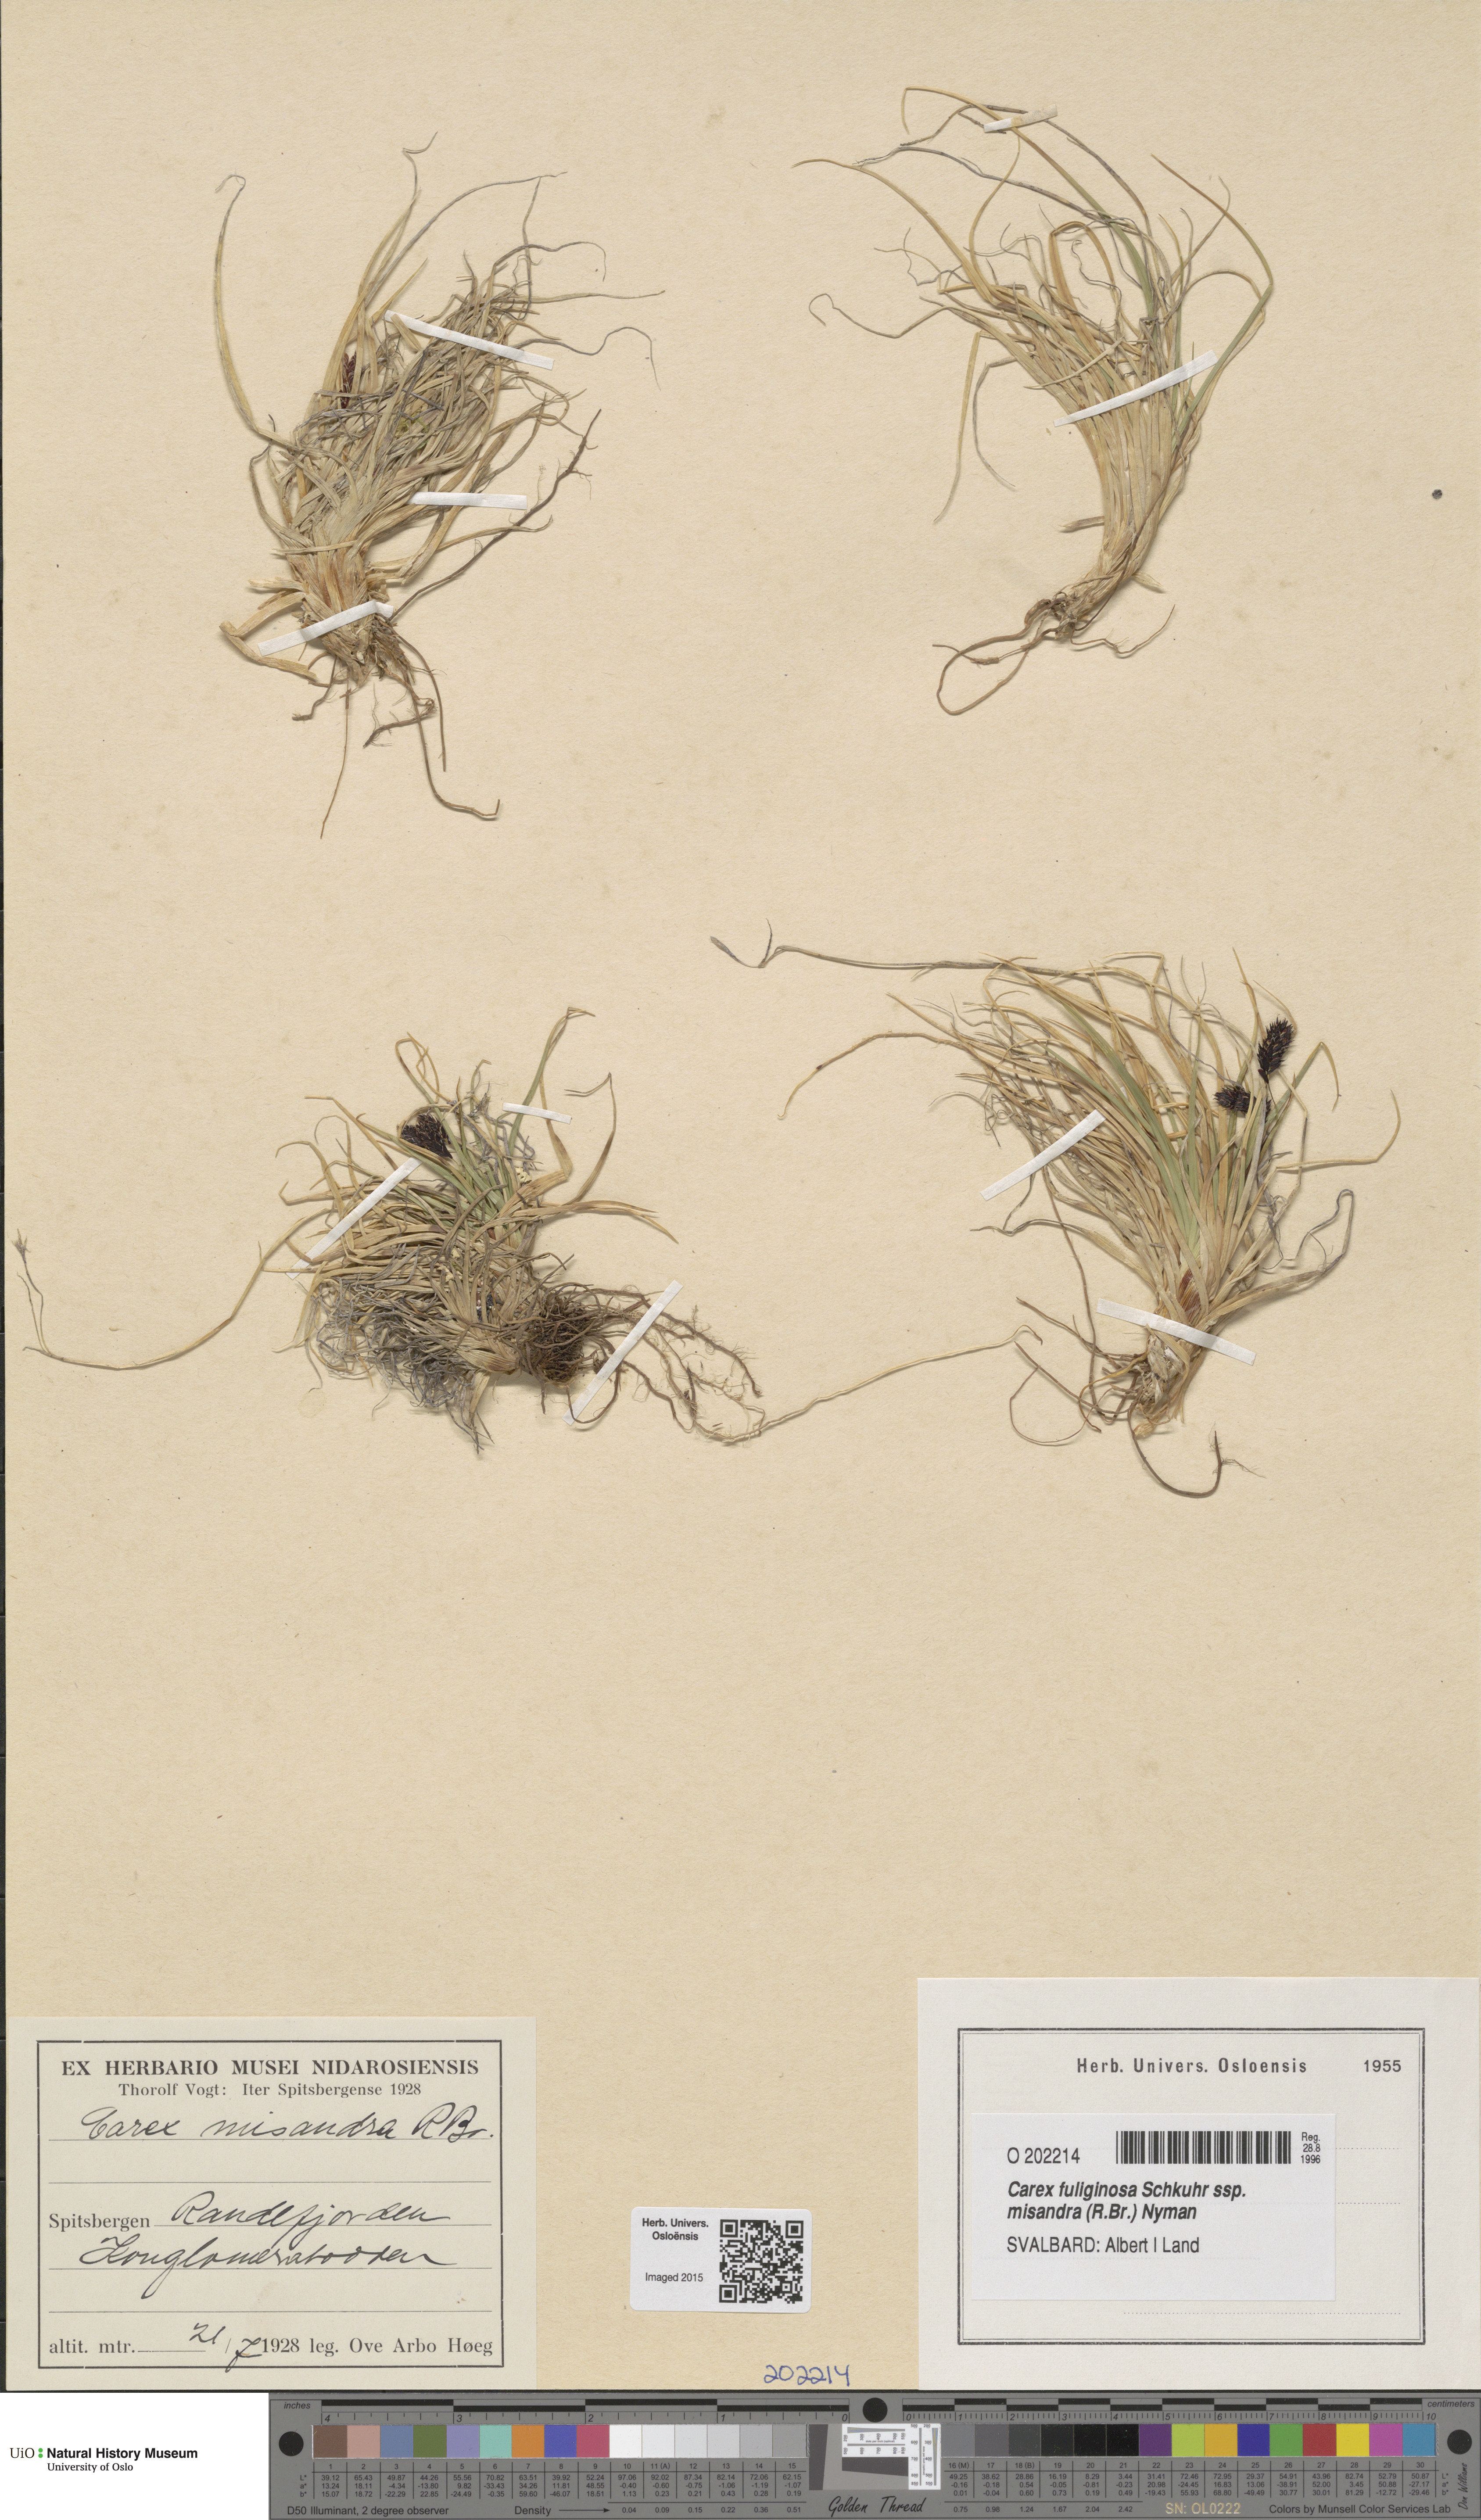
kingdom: Plantae
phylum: Tracheophyta
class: Liliopsida
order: Poales
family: Cyperaceae
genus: Carex
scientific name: Carex fuliginosa
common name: Few-flowered sedge
